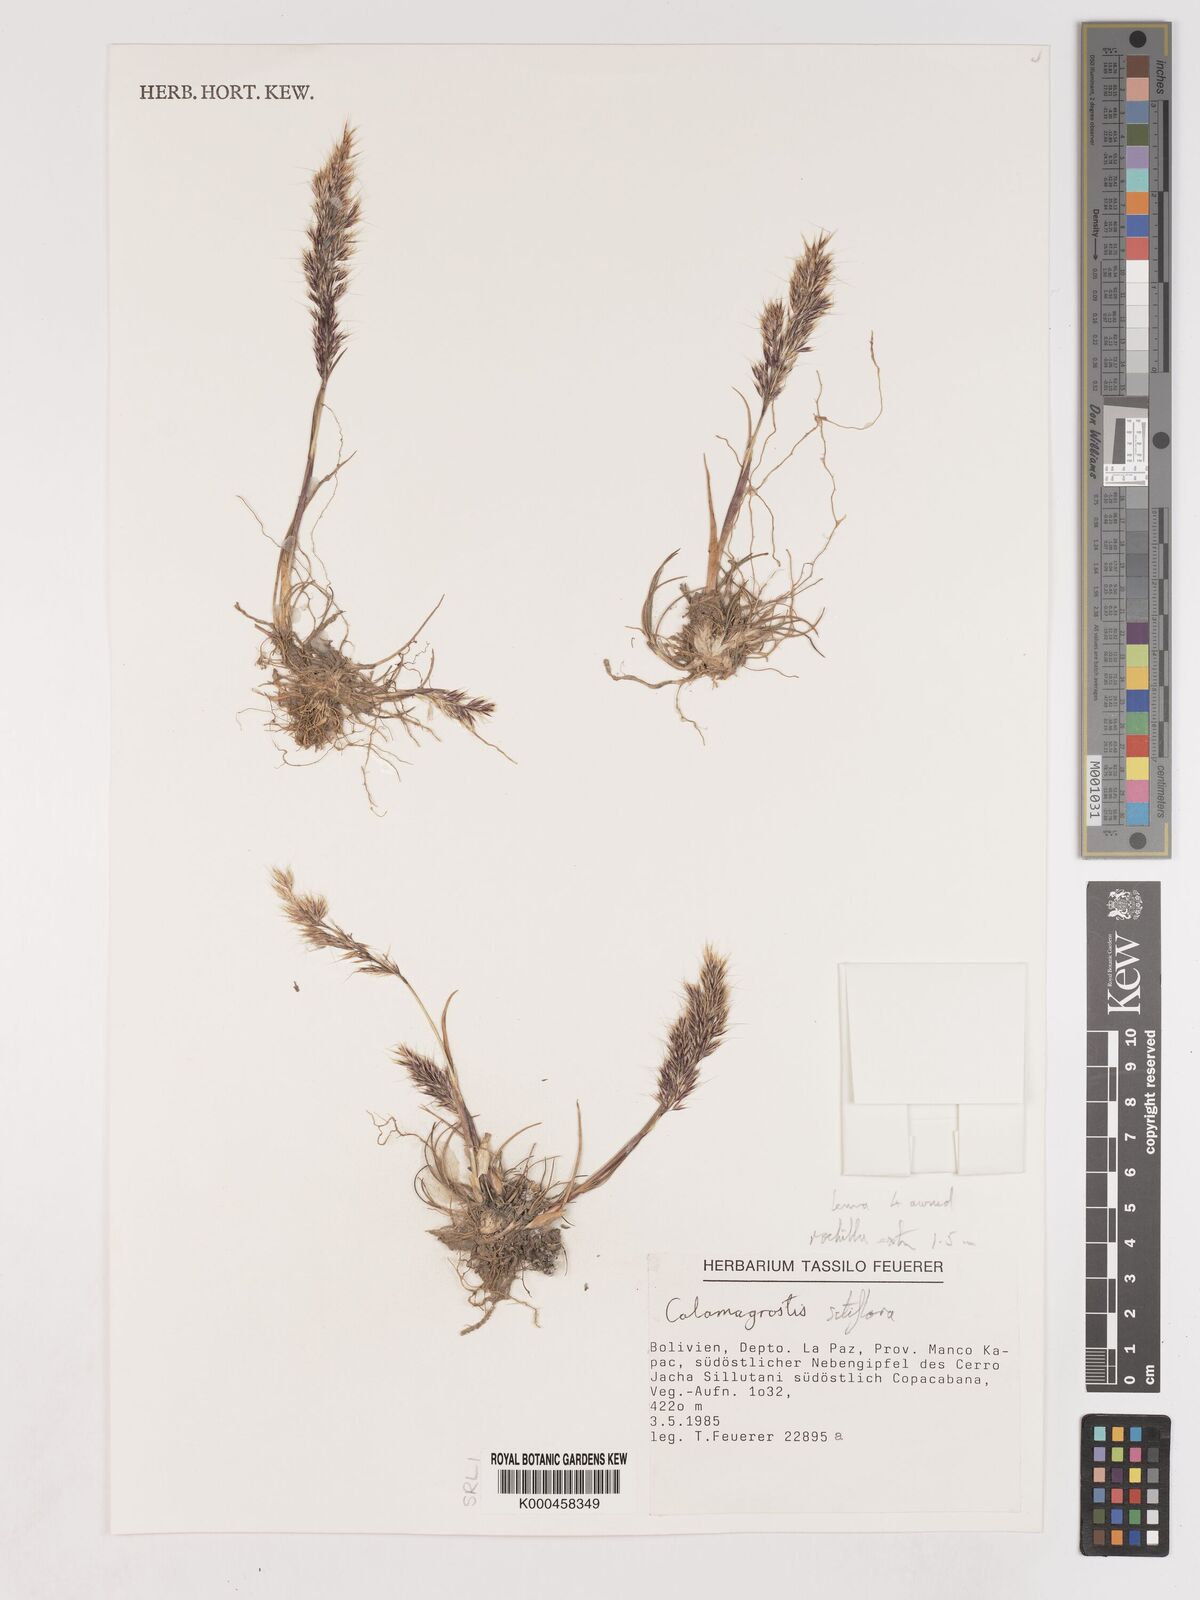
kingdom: Plantae
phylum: Tracheophyta
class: Liliopsida
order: Poales
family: Poaceae
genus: Cinnagrostis
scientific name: Cinnagrostis setiflora
